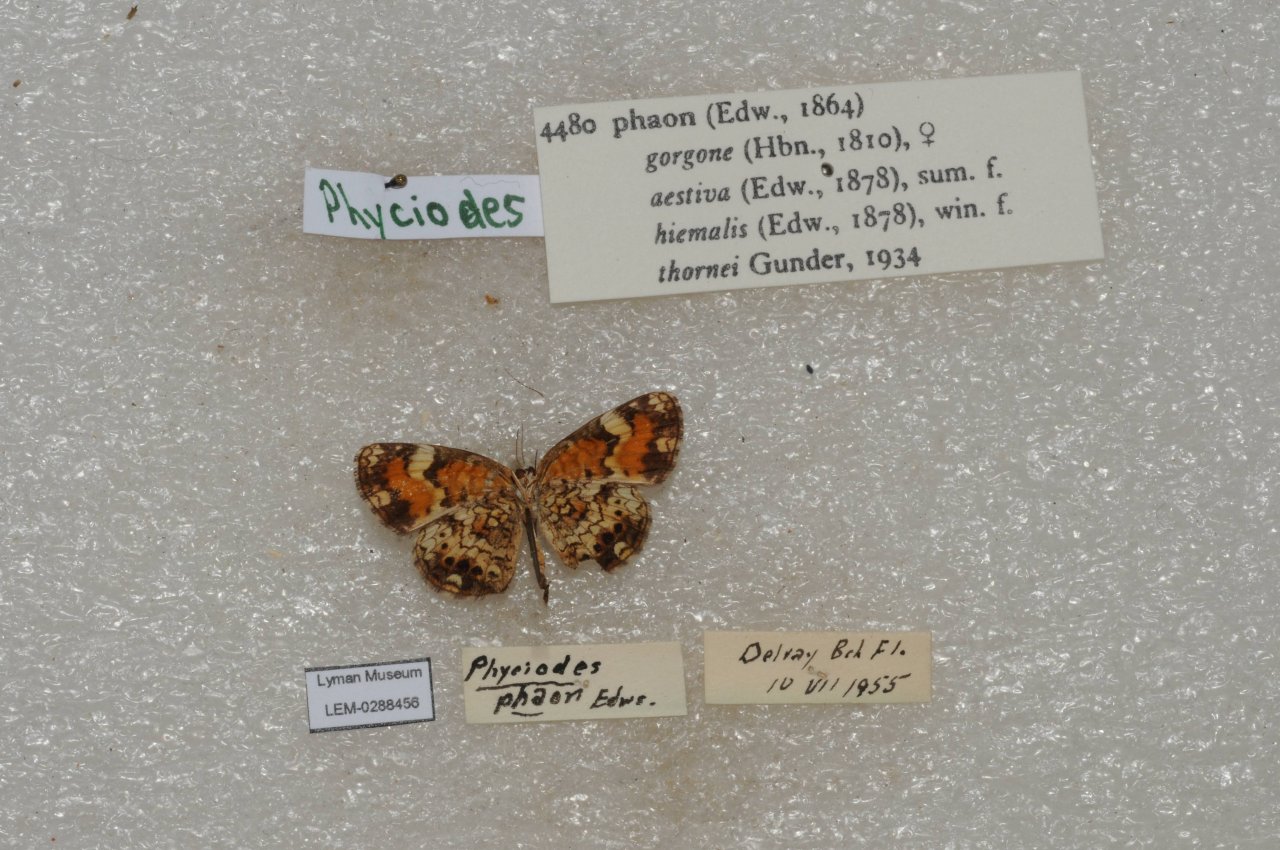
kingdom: Animalia
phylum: Arthropoda
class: Insecta
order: Lepidoptera
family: Nymphalidae
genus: Phyciodes
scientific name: Phyciodes phaon
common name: Phaon Crescent
